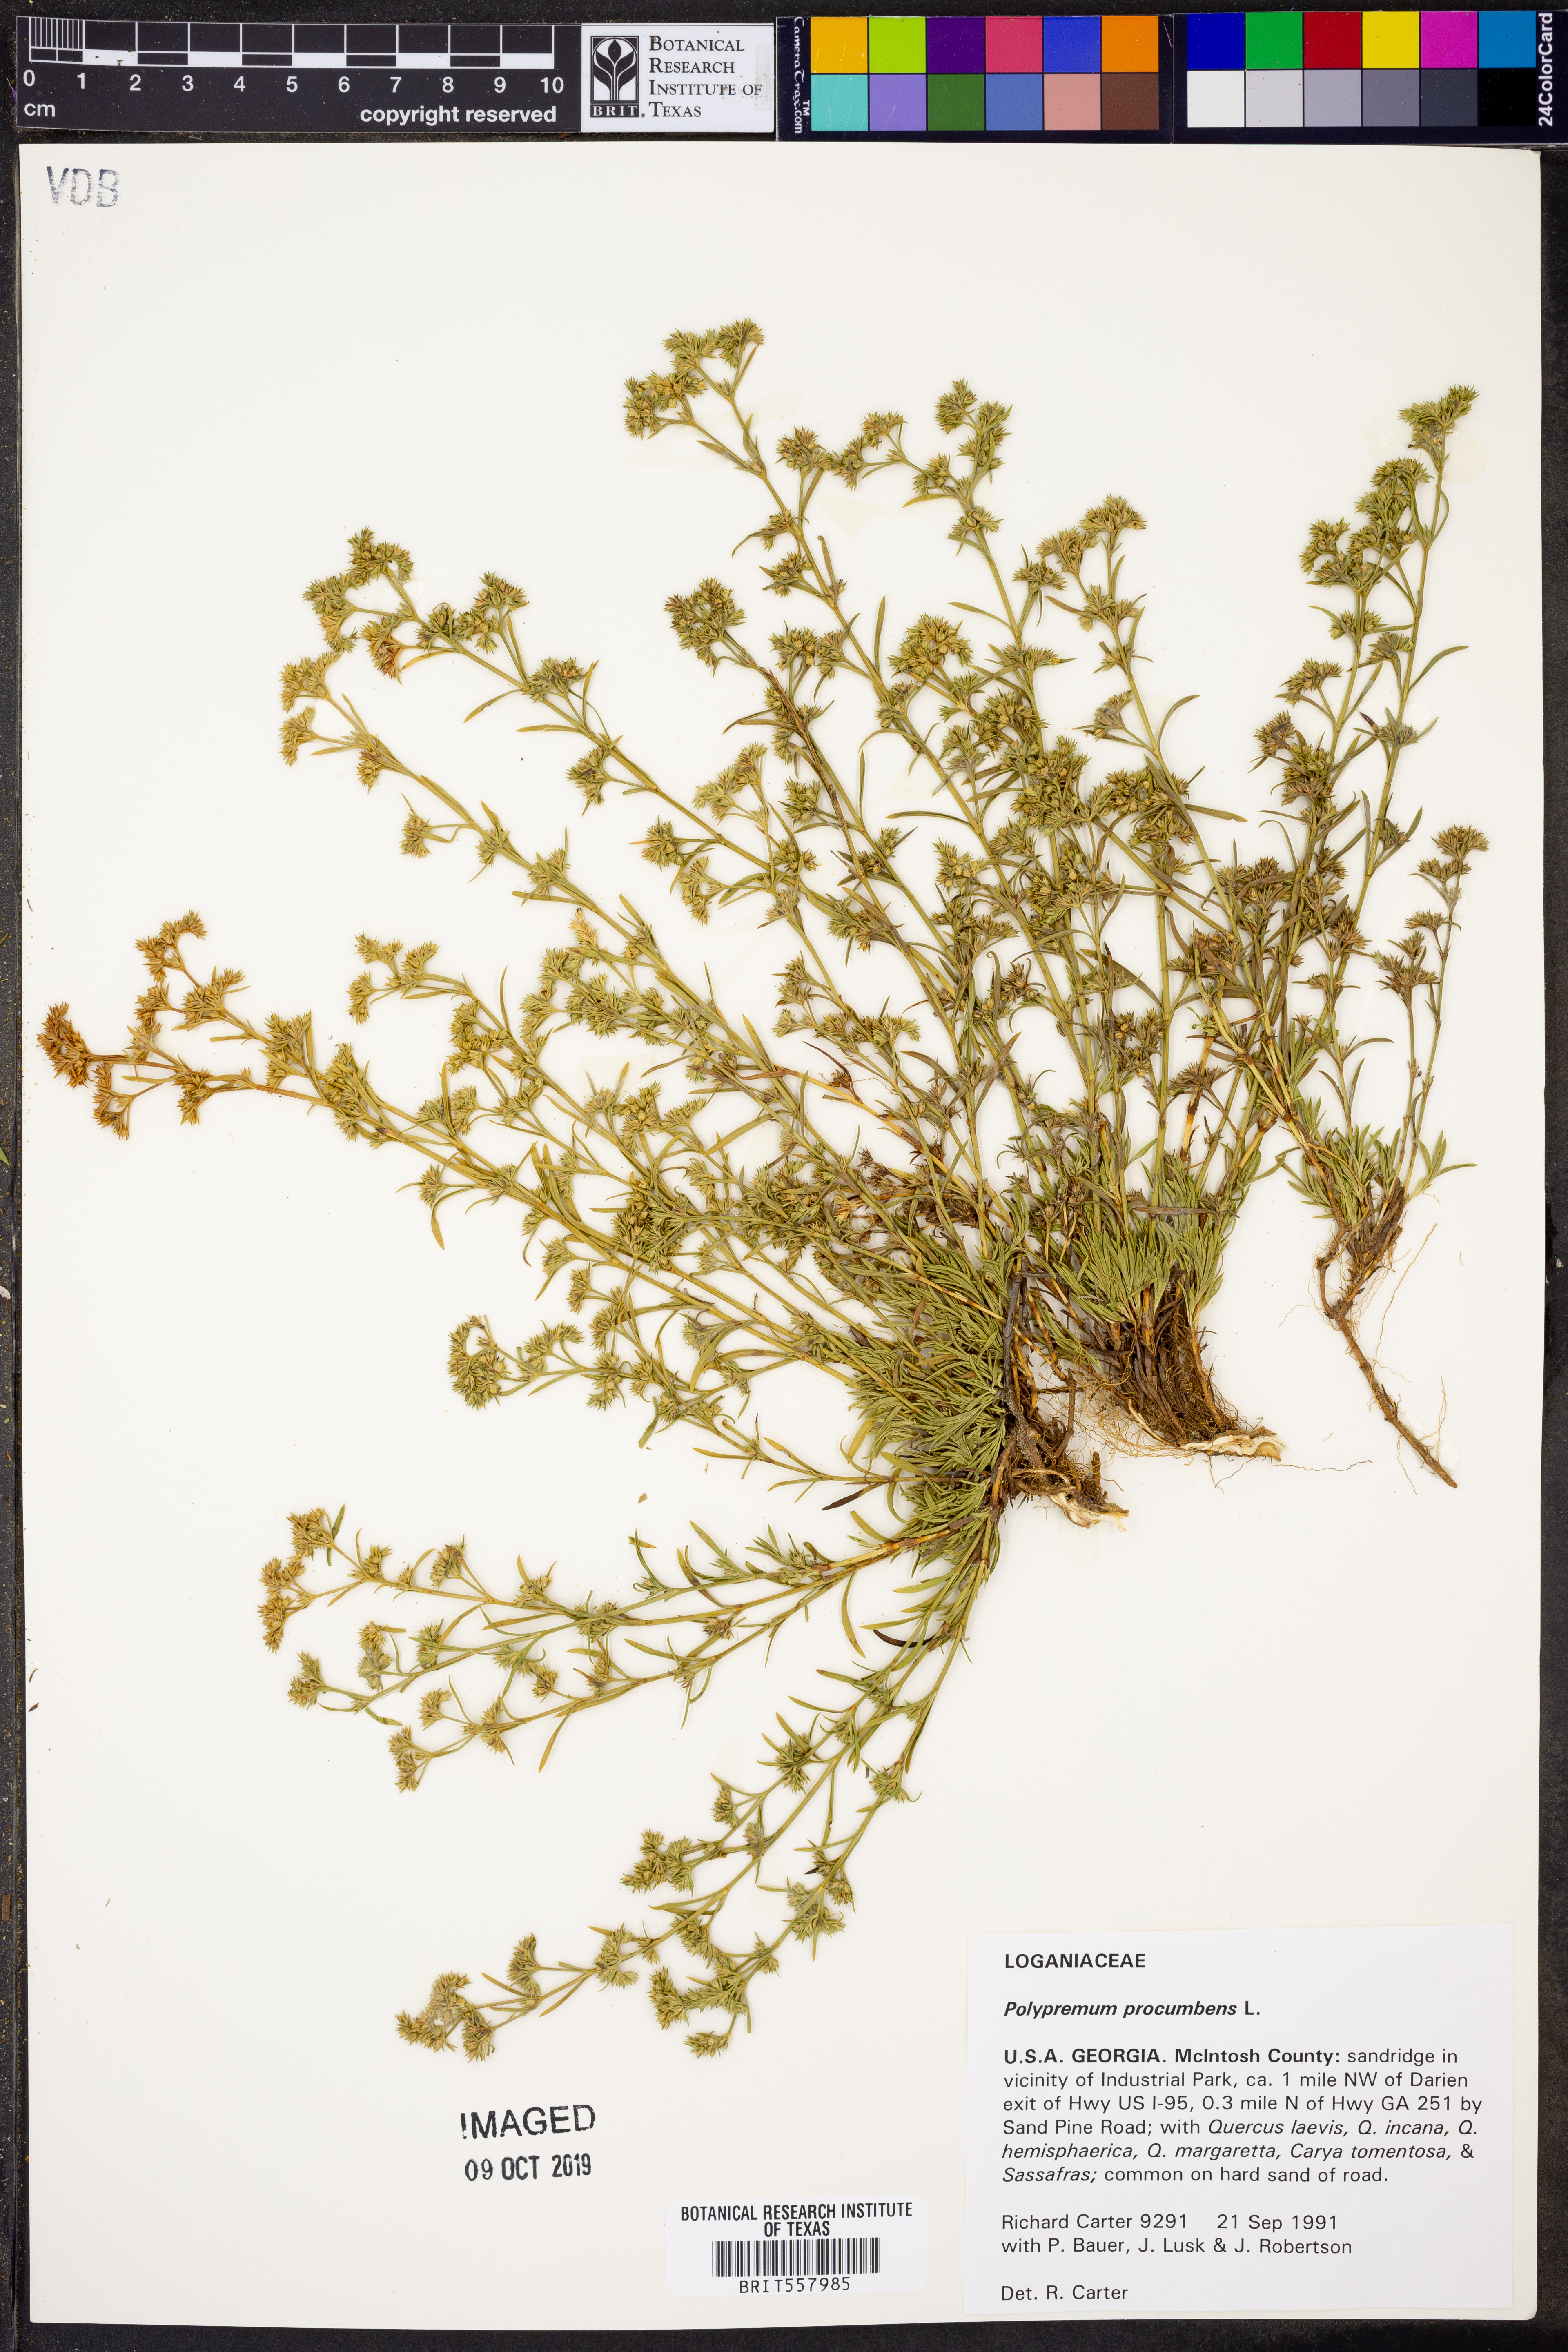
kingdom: Plantae
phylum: Tracheophyta
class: Magnoliopsida
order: Lamiales
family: Tetrachondraceae
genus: Polypremum
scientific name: Polypremum procumbens
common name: Juniper-leaf
